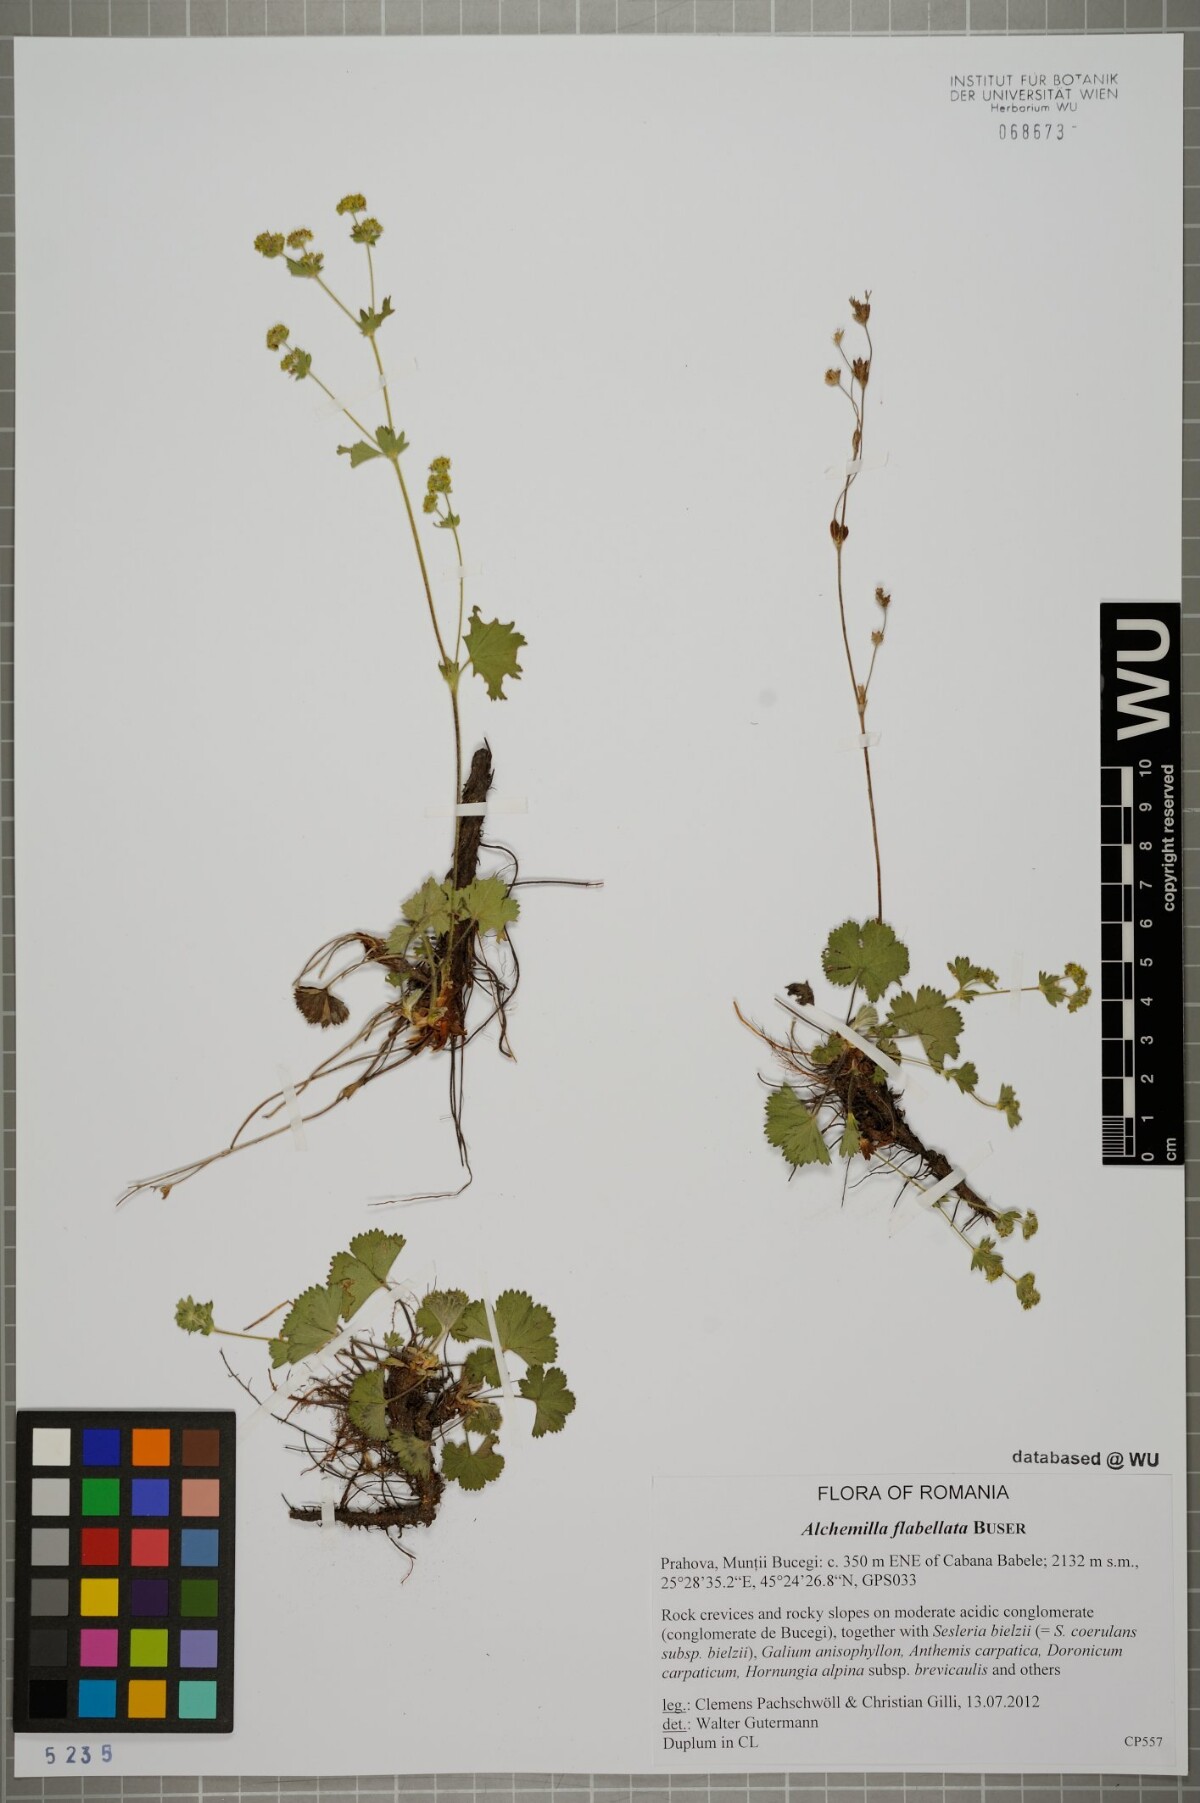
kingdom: Plantae
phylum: Tracheophyta
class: Magnoliopsida
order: Rosales
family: Rosaceae
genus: Alchemilla
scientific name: Alchemilla flabellata
